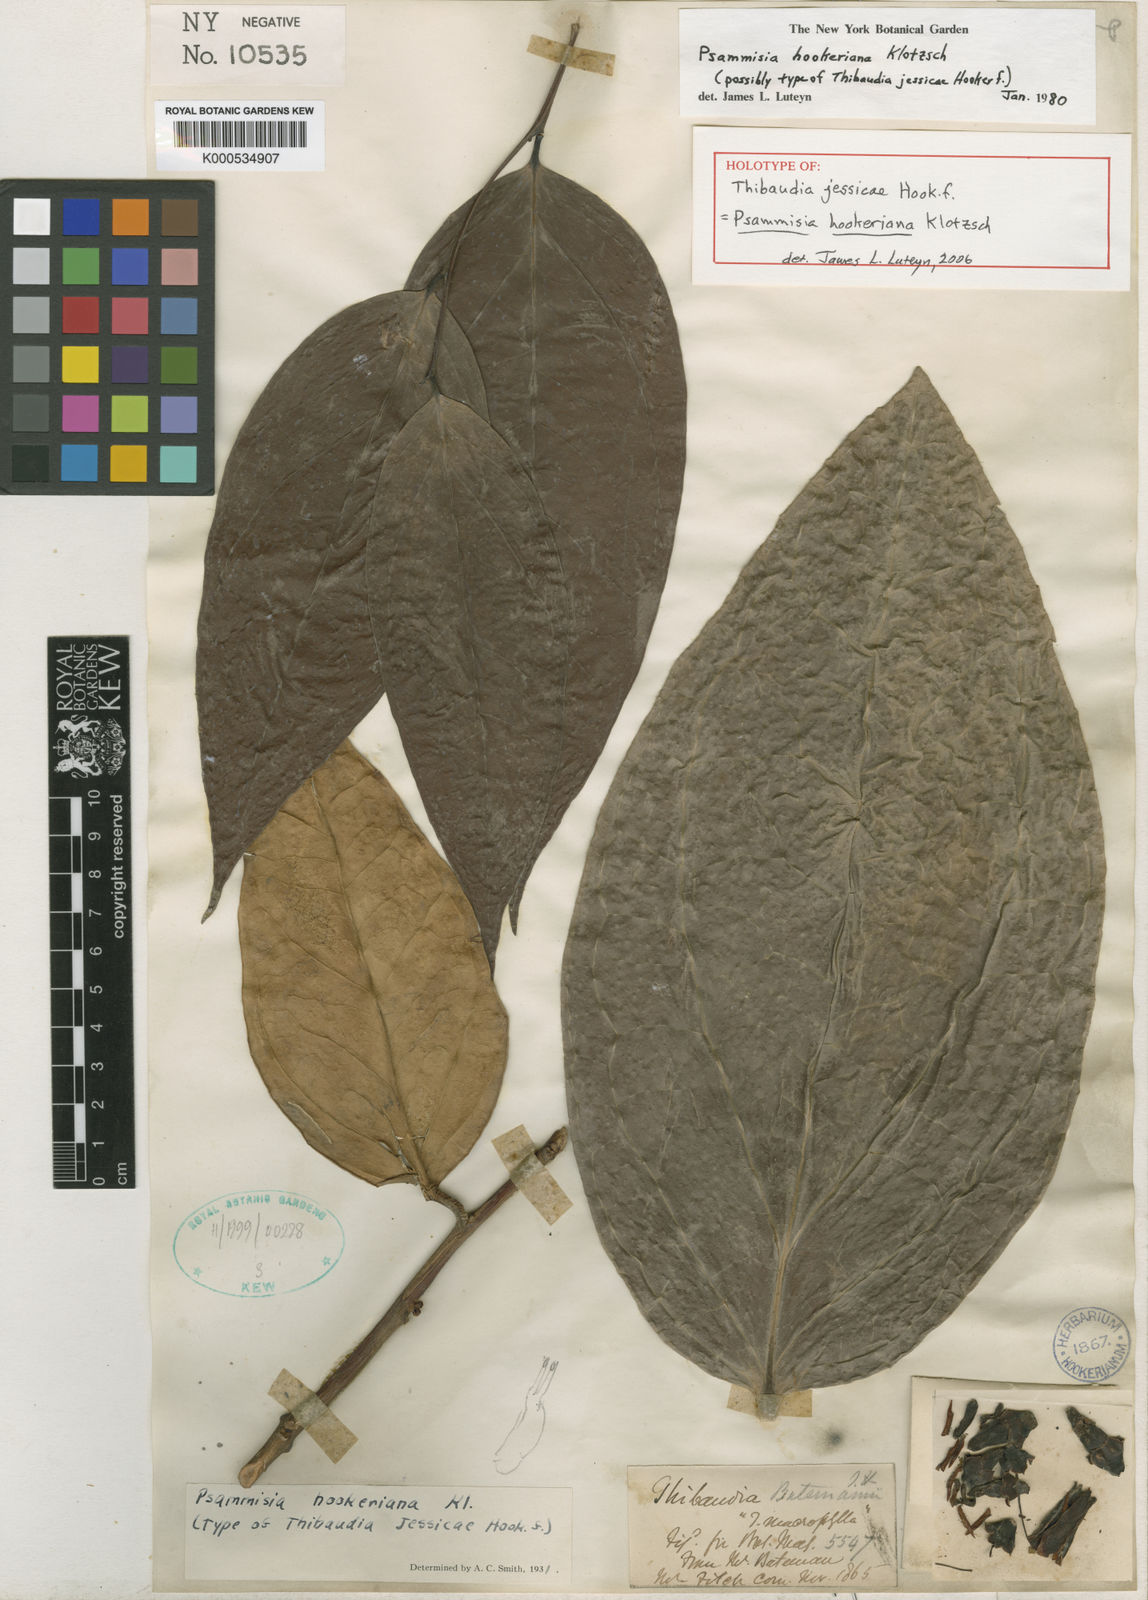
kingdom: Plantae
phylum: Tracheophyta
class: Magnoliopsida
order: Ericales
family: Ericaceae
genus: Psammisia
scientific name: Psammisia hookeriana
